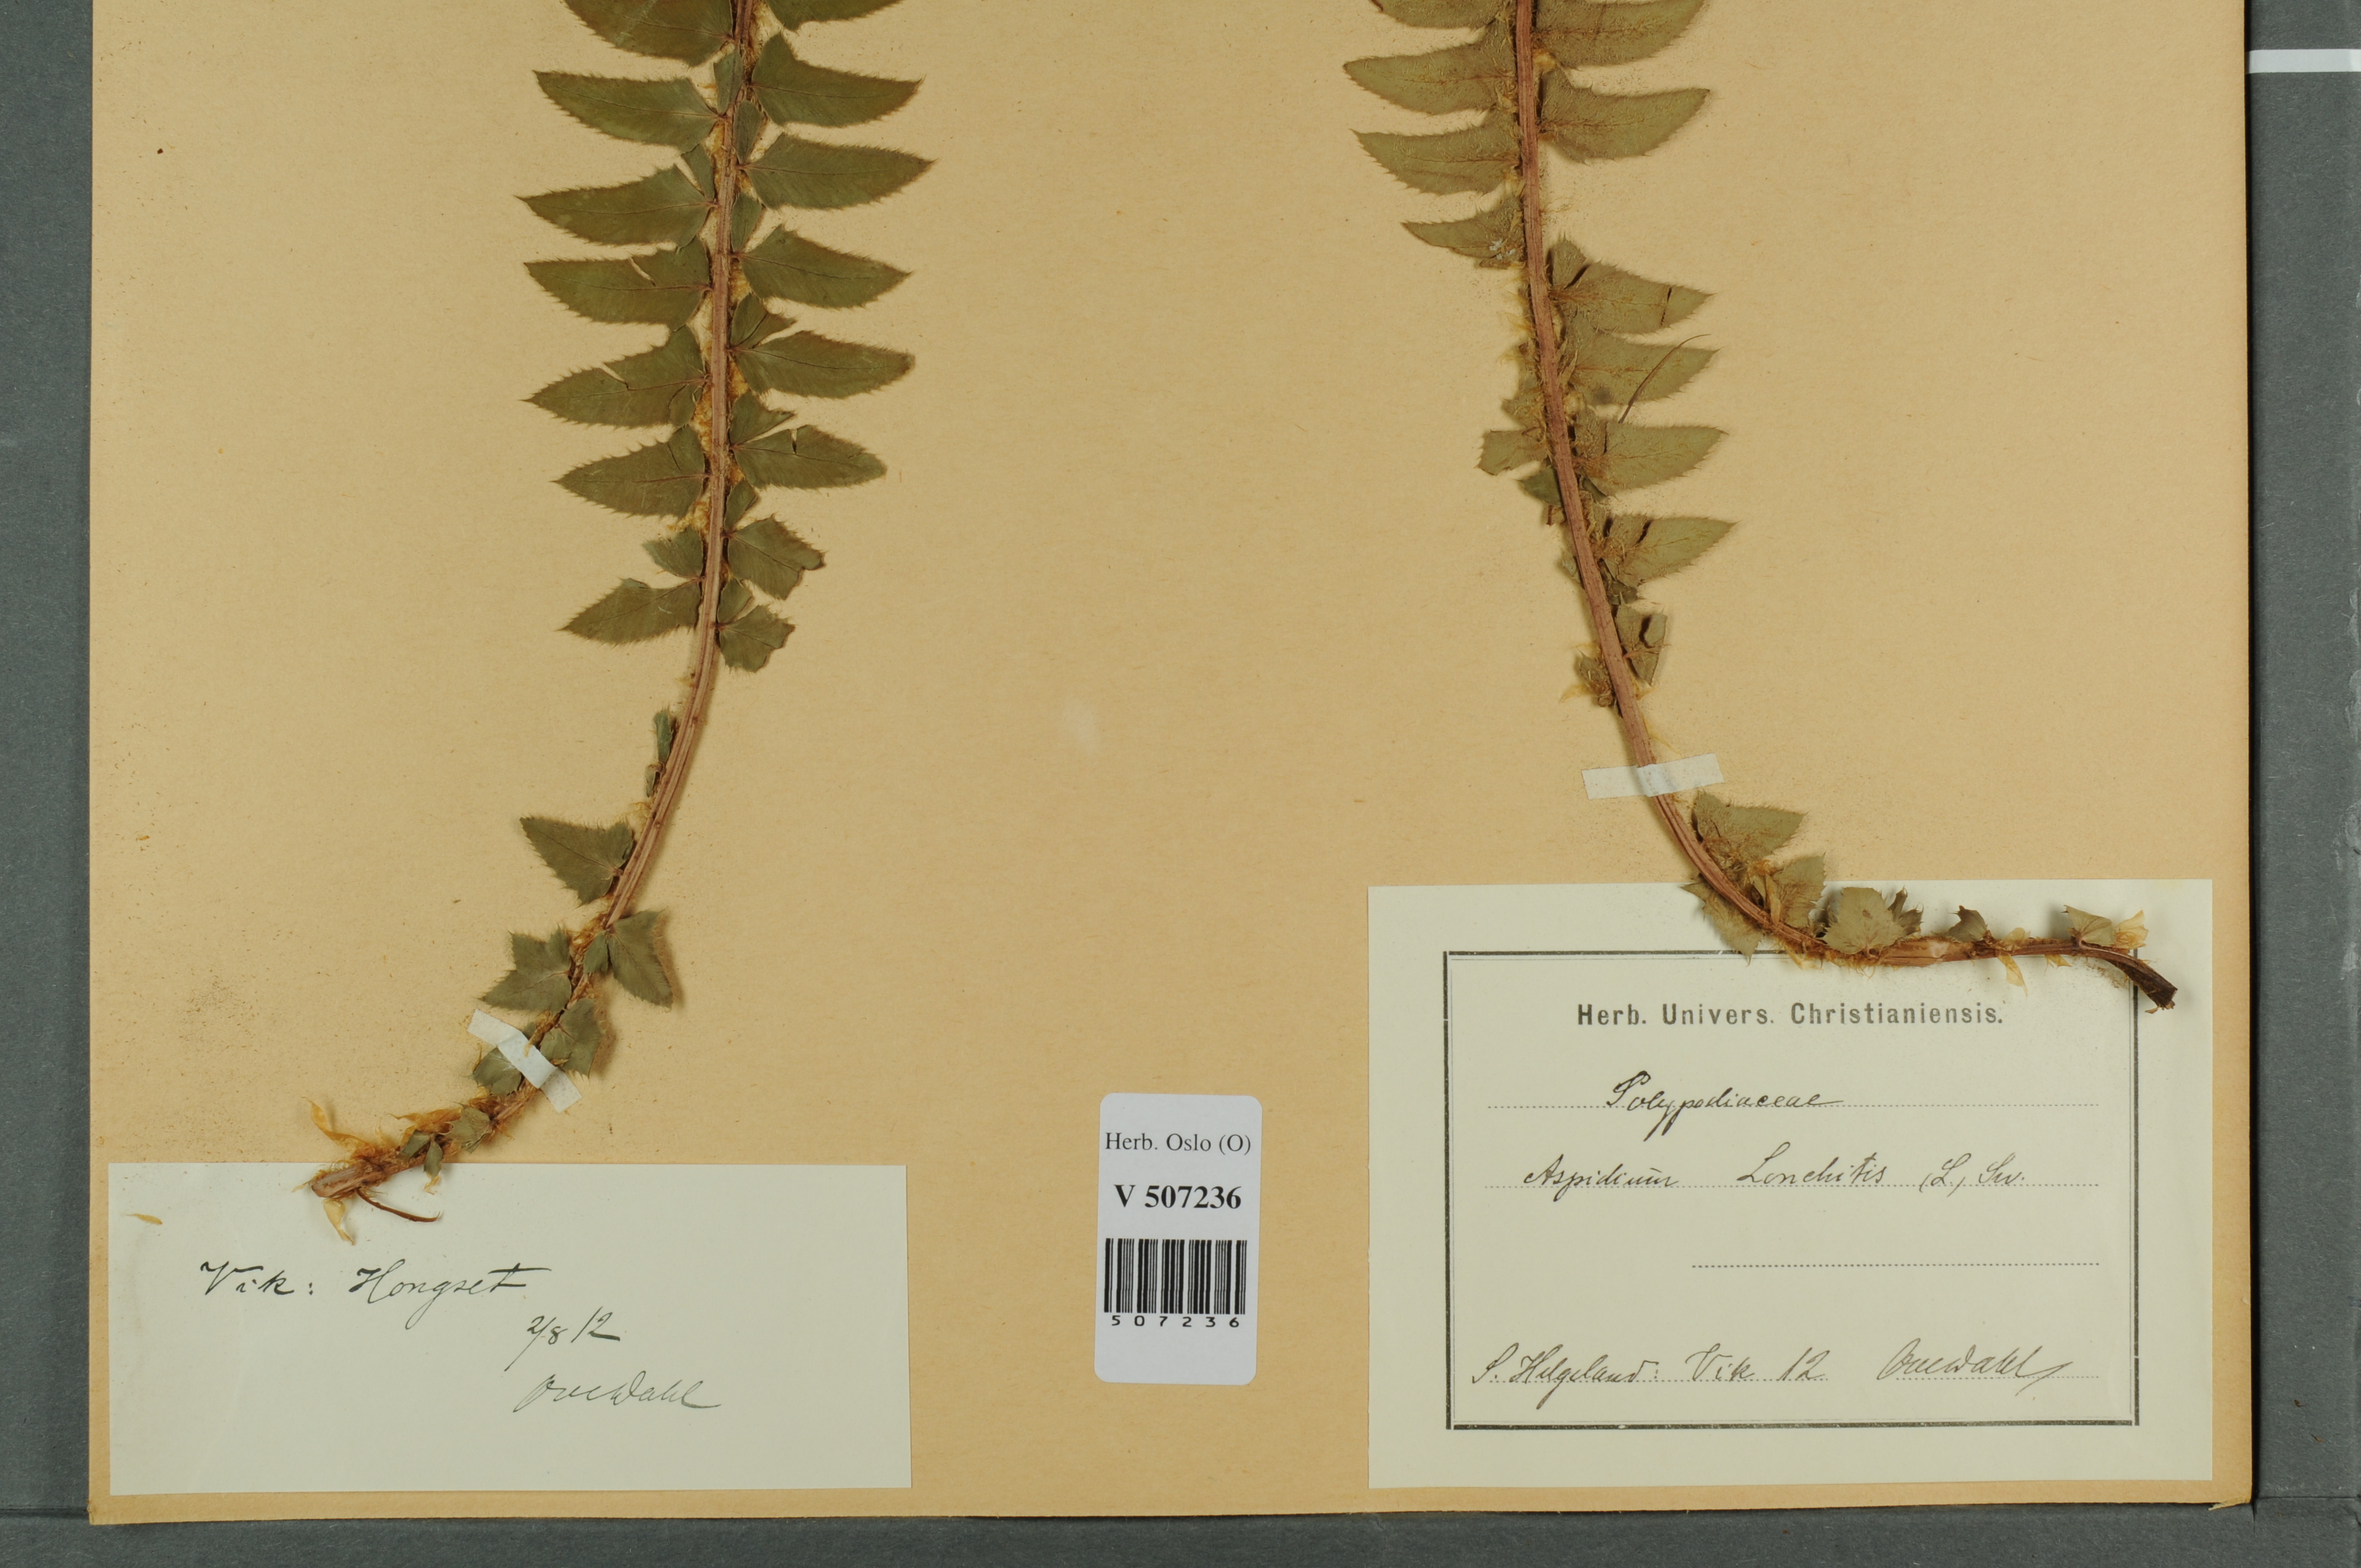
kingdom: Plantae
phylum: Tracheophyta
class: Polypodiopsida
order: Polypodiales
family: Dryopteridaceae
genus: Polystichum
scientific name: Polystichum lonchitis
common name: Holly fern
